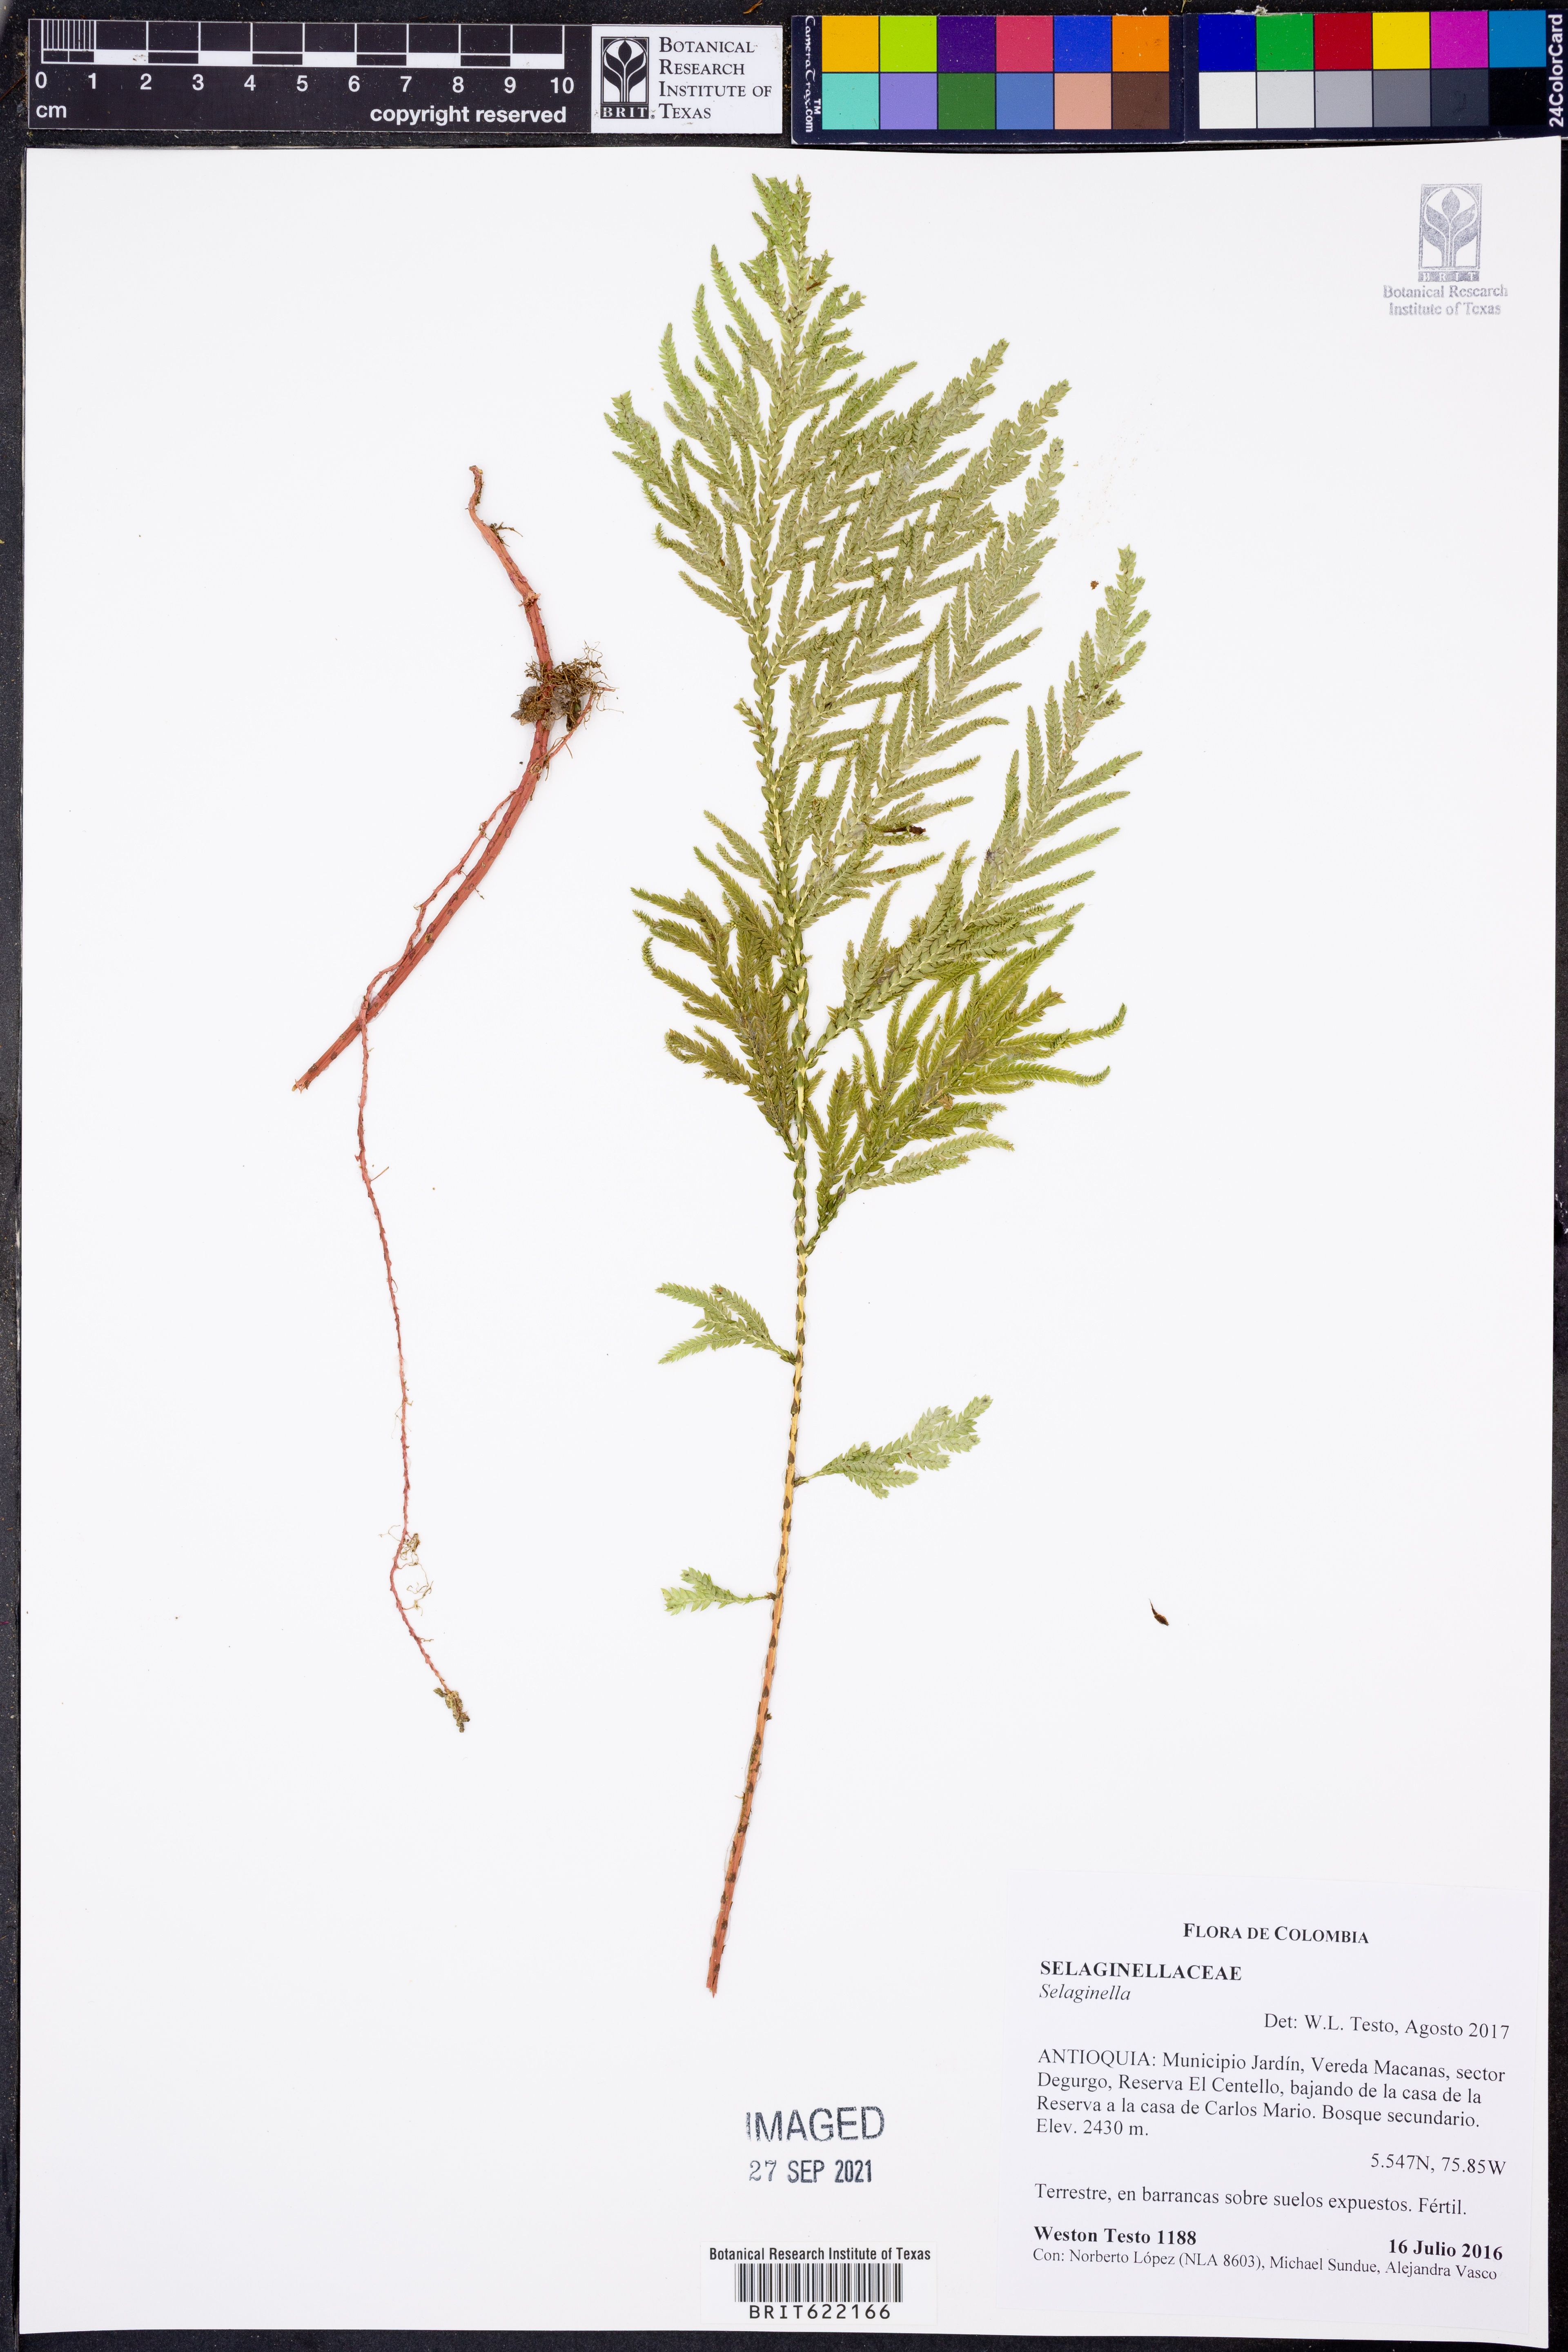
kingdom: Plantae
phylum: Tracheophyta
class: Lycopodiopsida
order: Selaginellales
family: Selaginellaceae
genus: Selaginella
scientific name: Selaginella rosea
